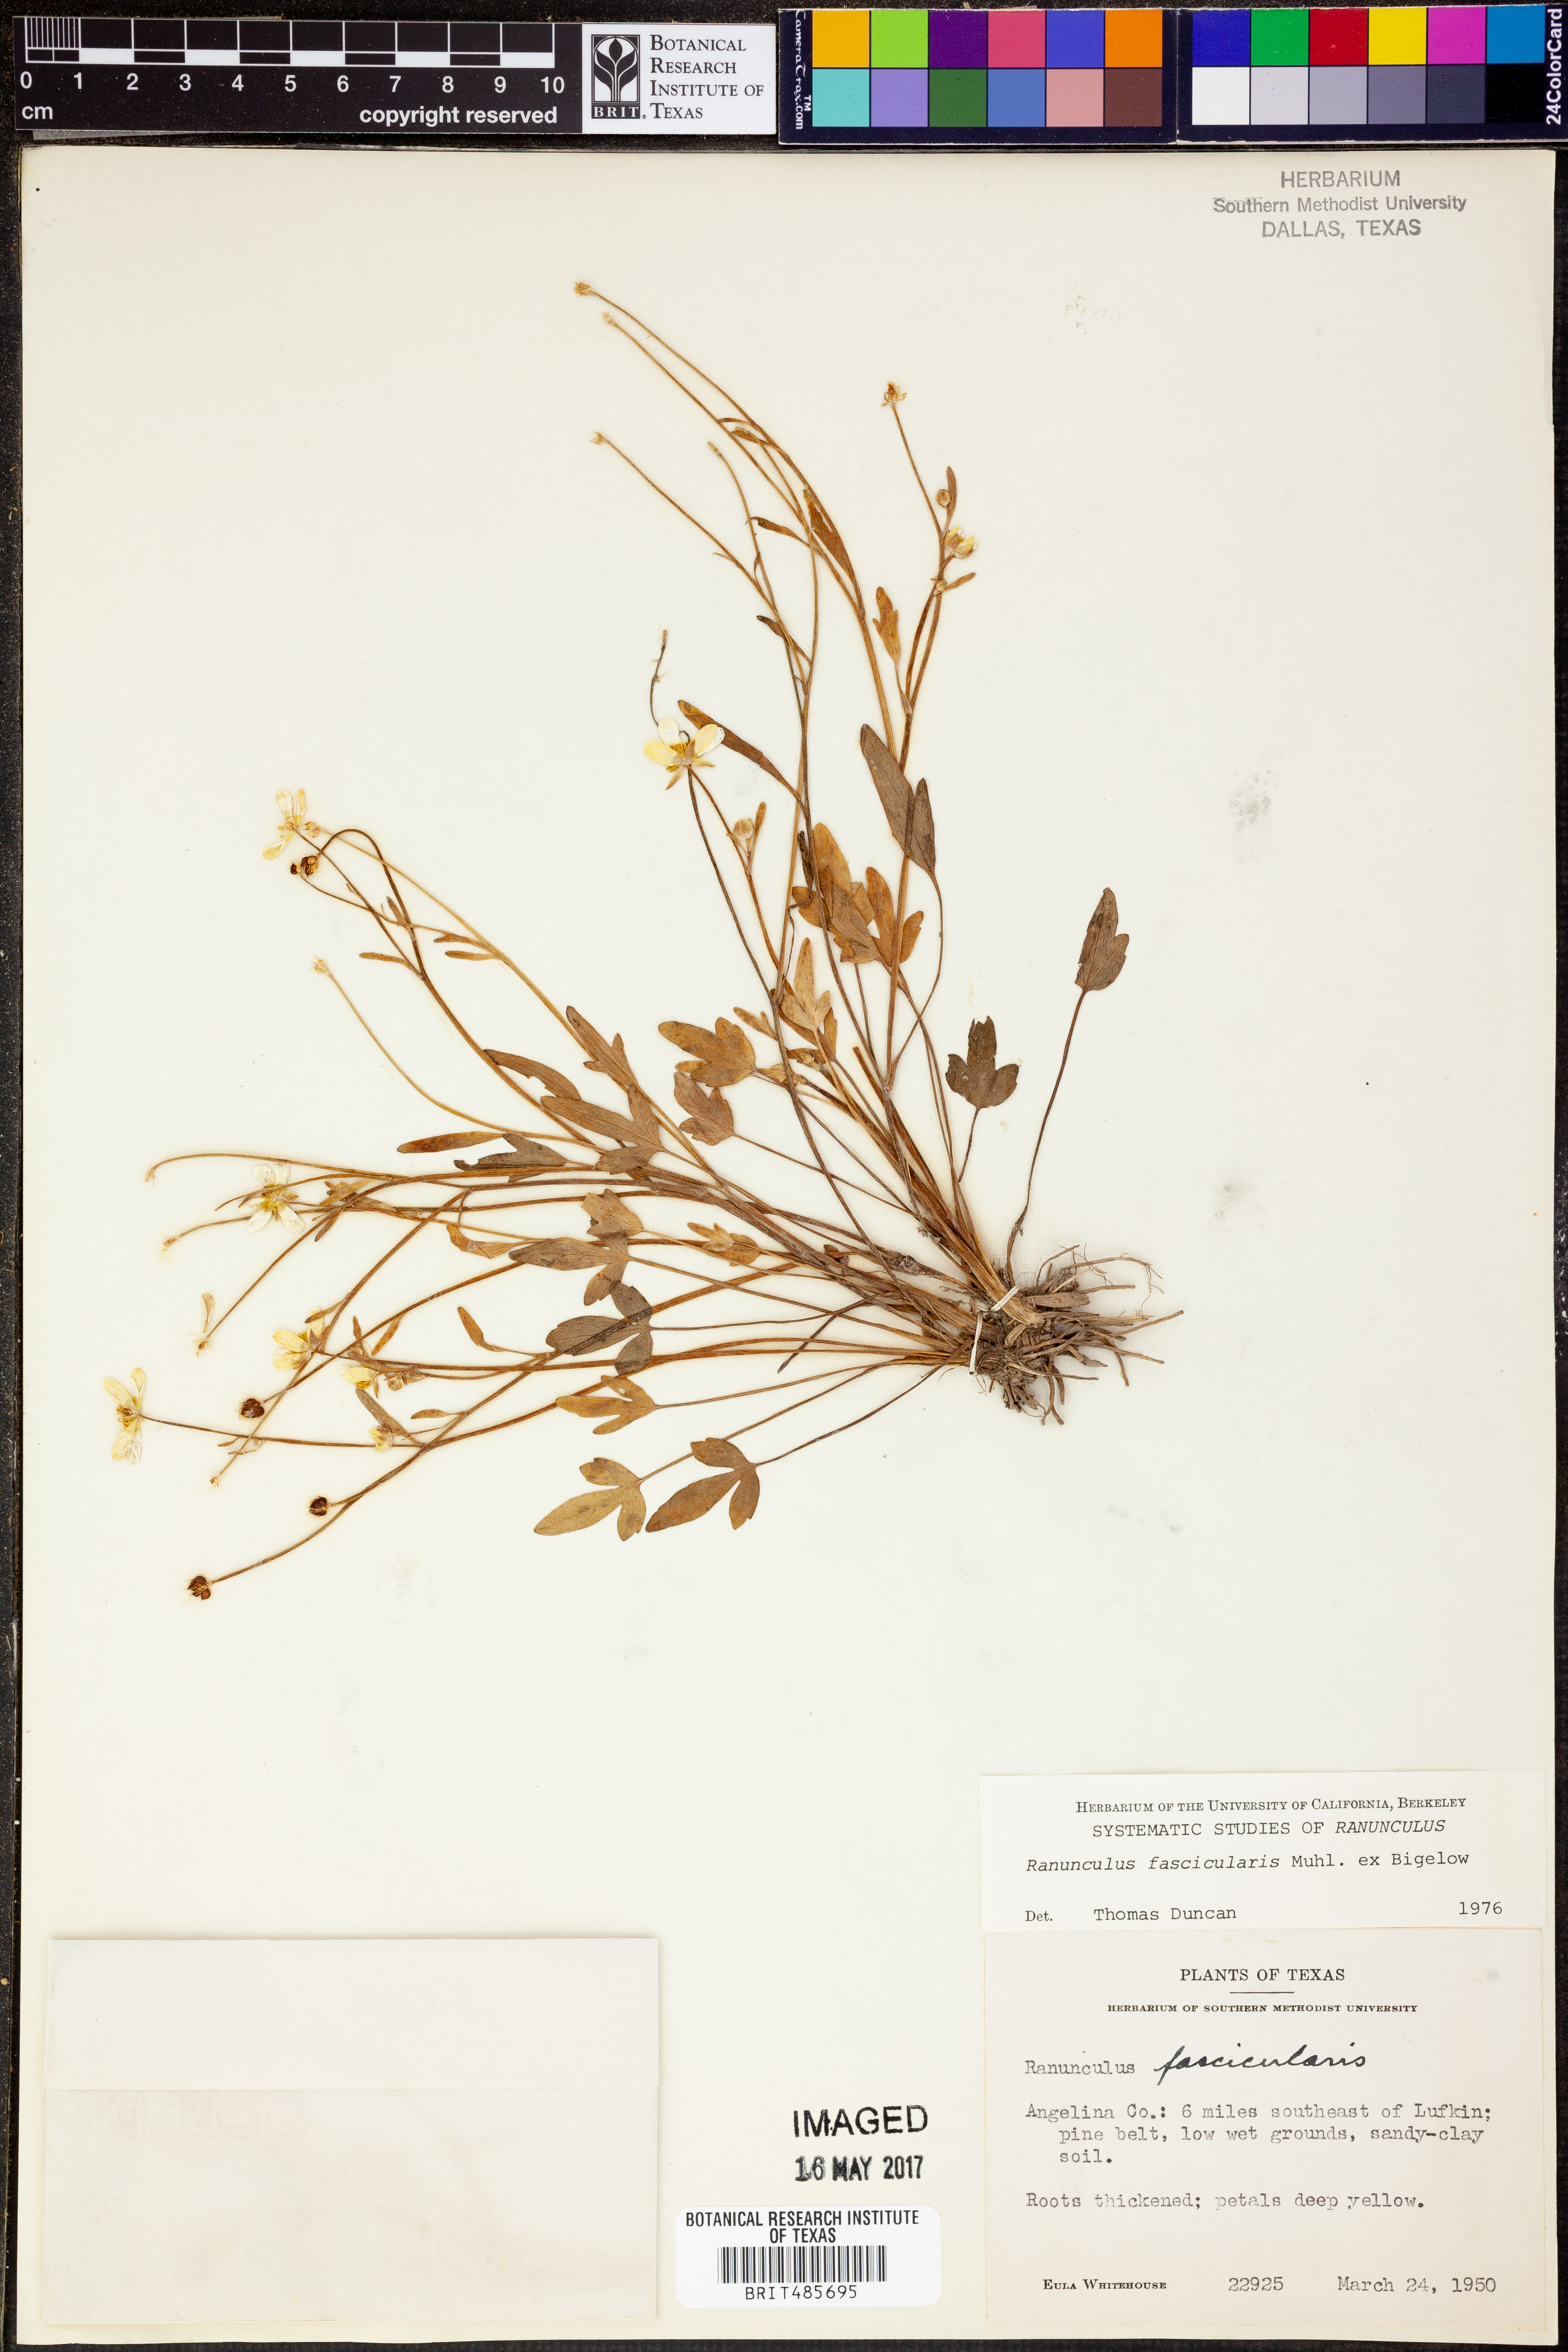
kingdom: Plantae
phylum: Tracheophyta
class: Magnoliopsida
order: Ranunculales
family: Ranunculaceae
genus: Ranunculus
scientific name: Ranunculus fascicularis
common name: Early buttercup
